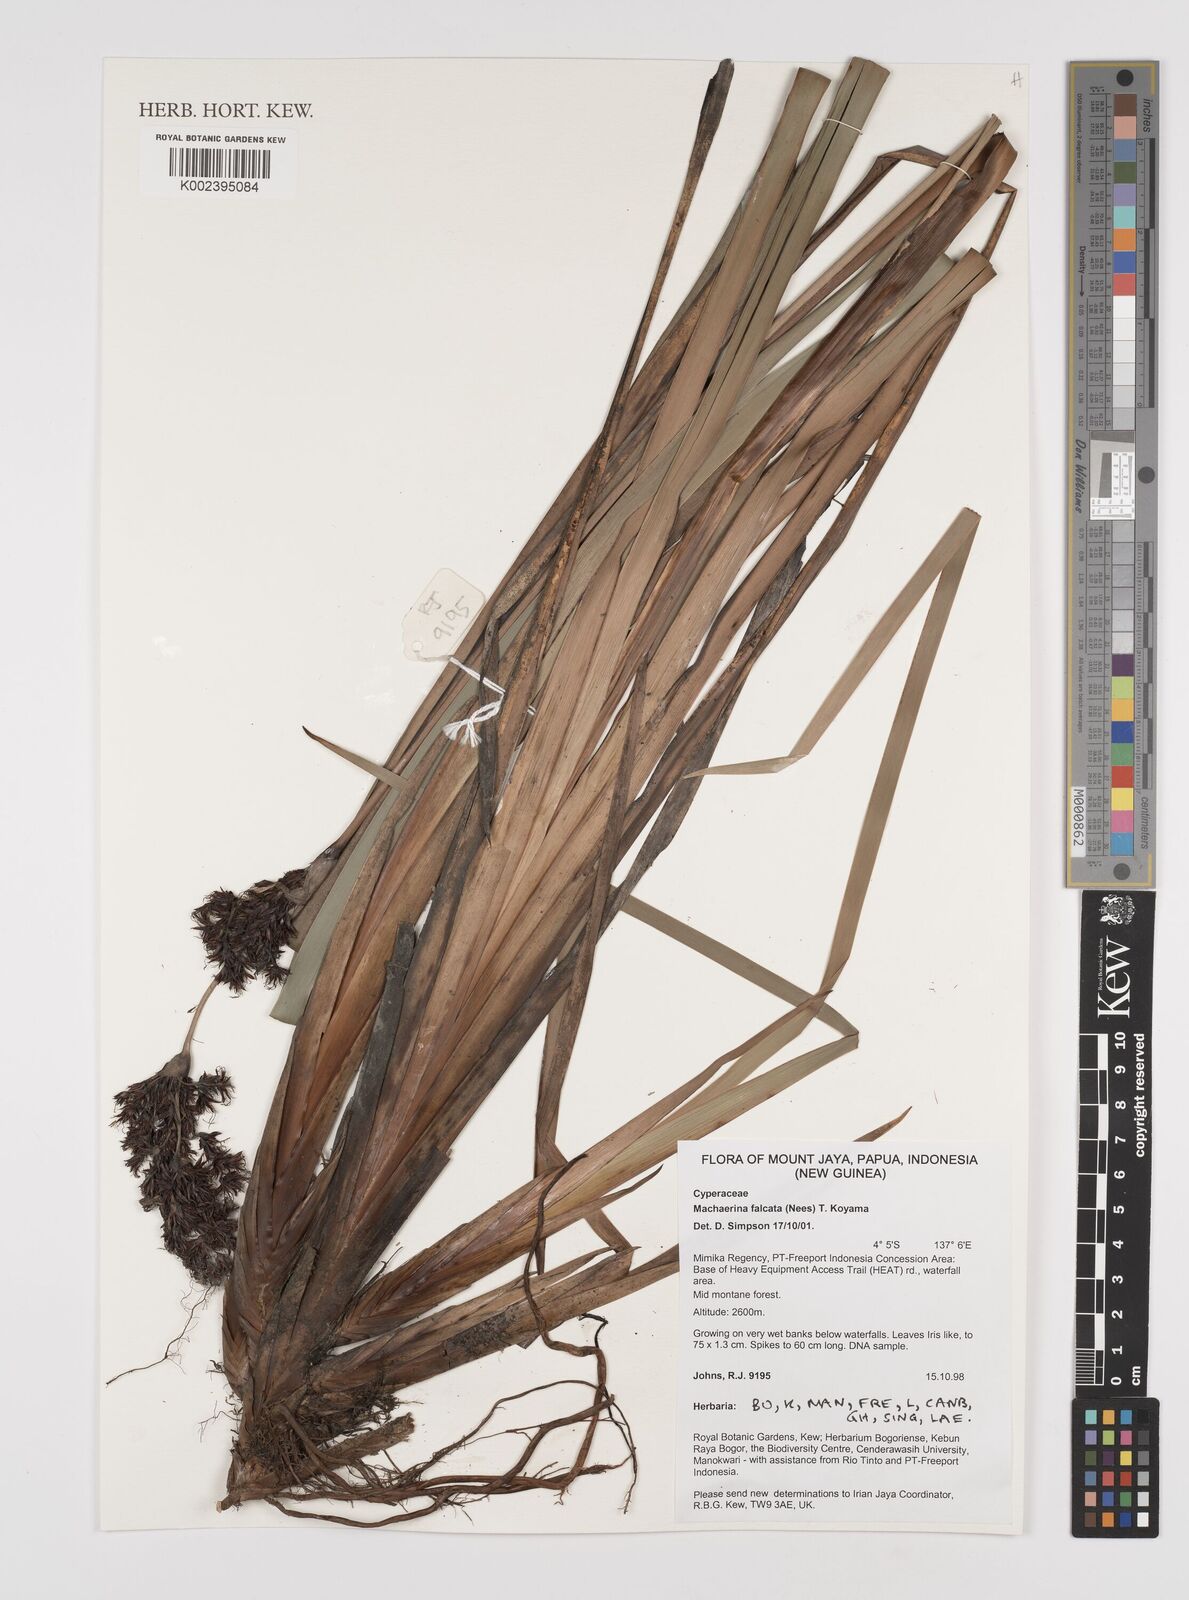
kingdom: Plantae
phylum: Tracheophyta
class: Liliopsida
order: Poales
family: Cyperaceae
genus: Machaerina
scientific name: Machaerina falcata
